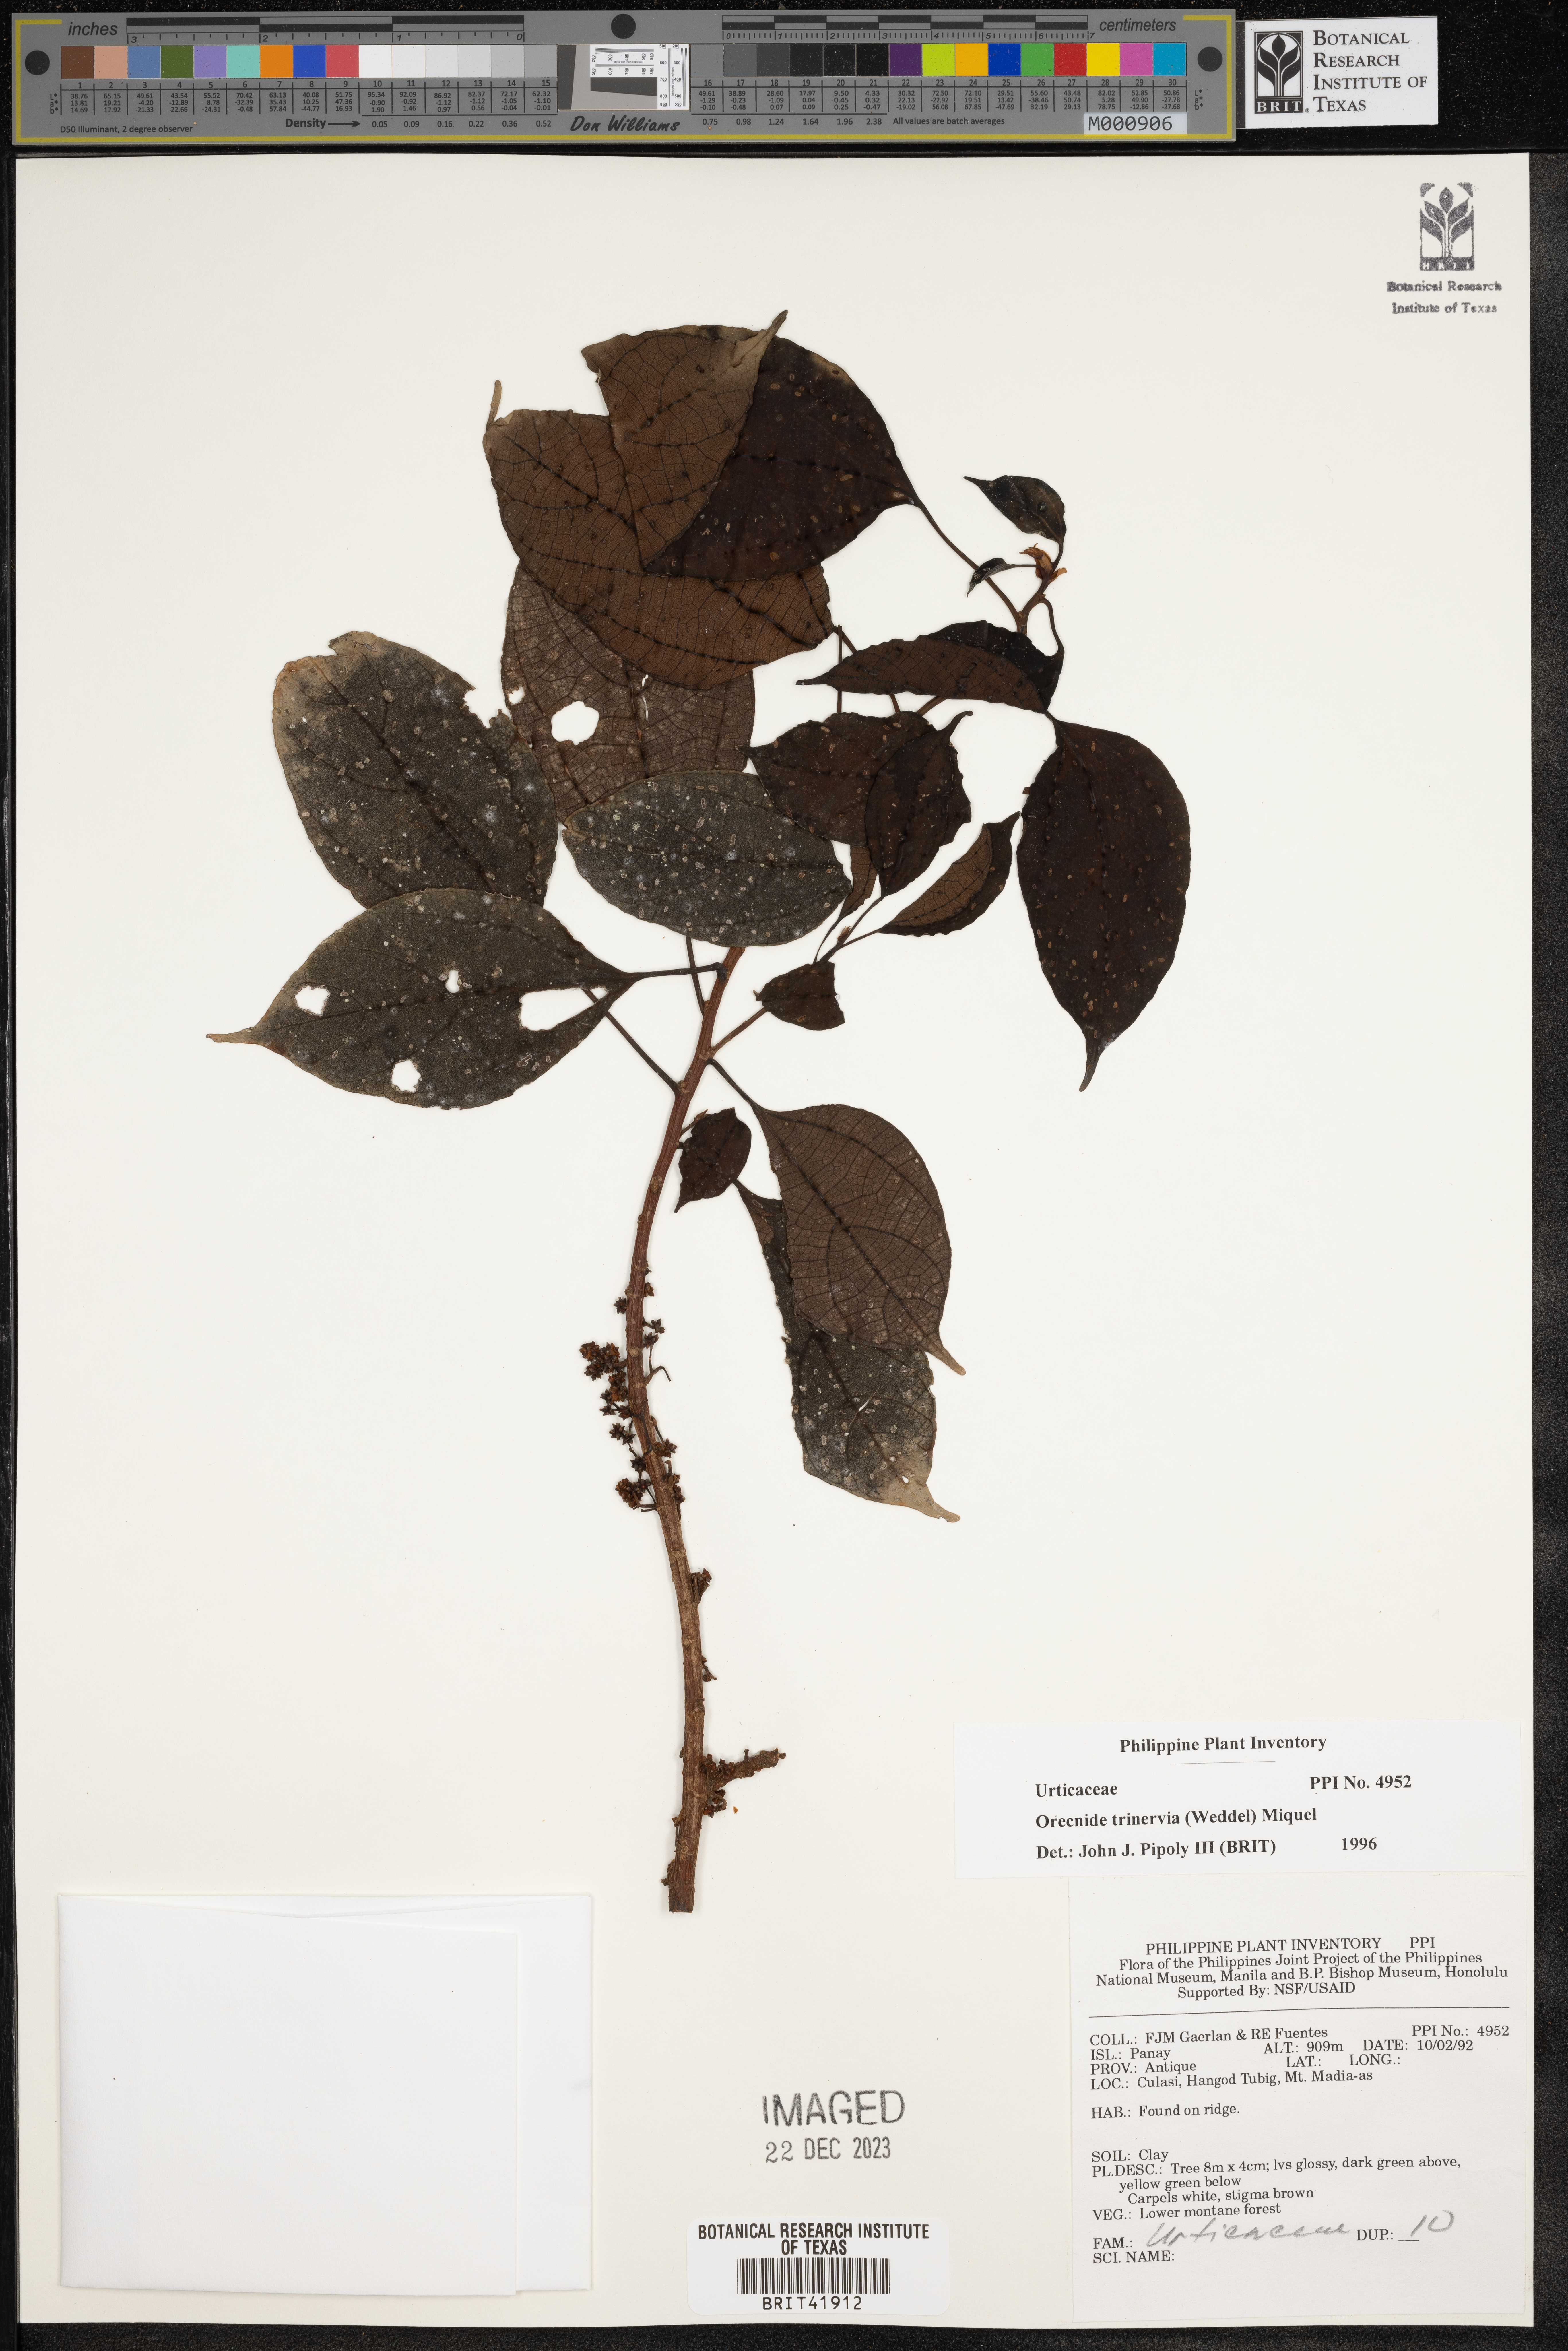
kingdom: Plantae
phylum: Tracheophyta
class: Magnoliopsida
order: Rosales
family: Urticaceae
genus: Oreocnide
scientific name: Oreocnide trinervis
